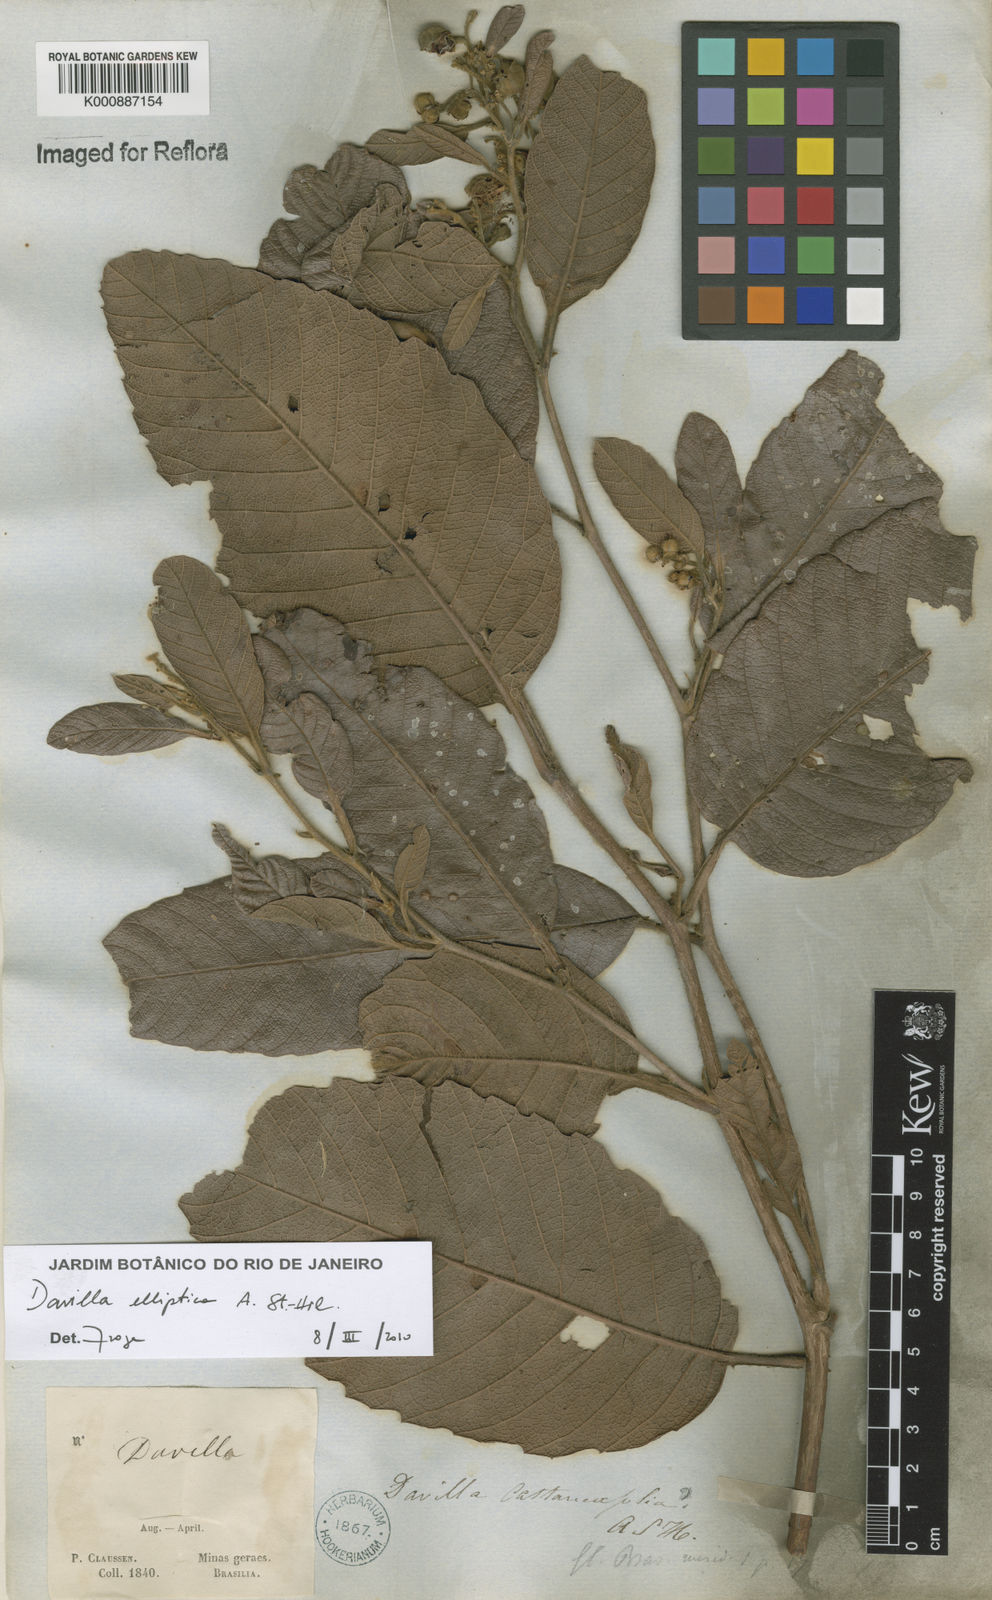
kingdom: Plantae
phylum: Tracheophyta
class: Magnoliopsida
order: Dilleniales
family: Dilleniaceae
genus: Davilla
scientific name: Davilla elliptica
